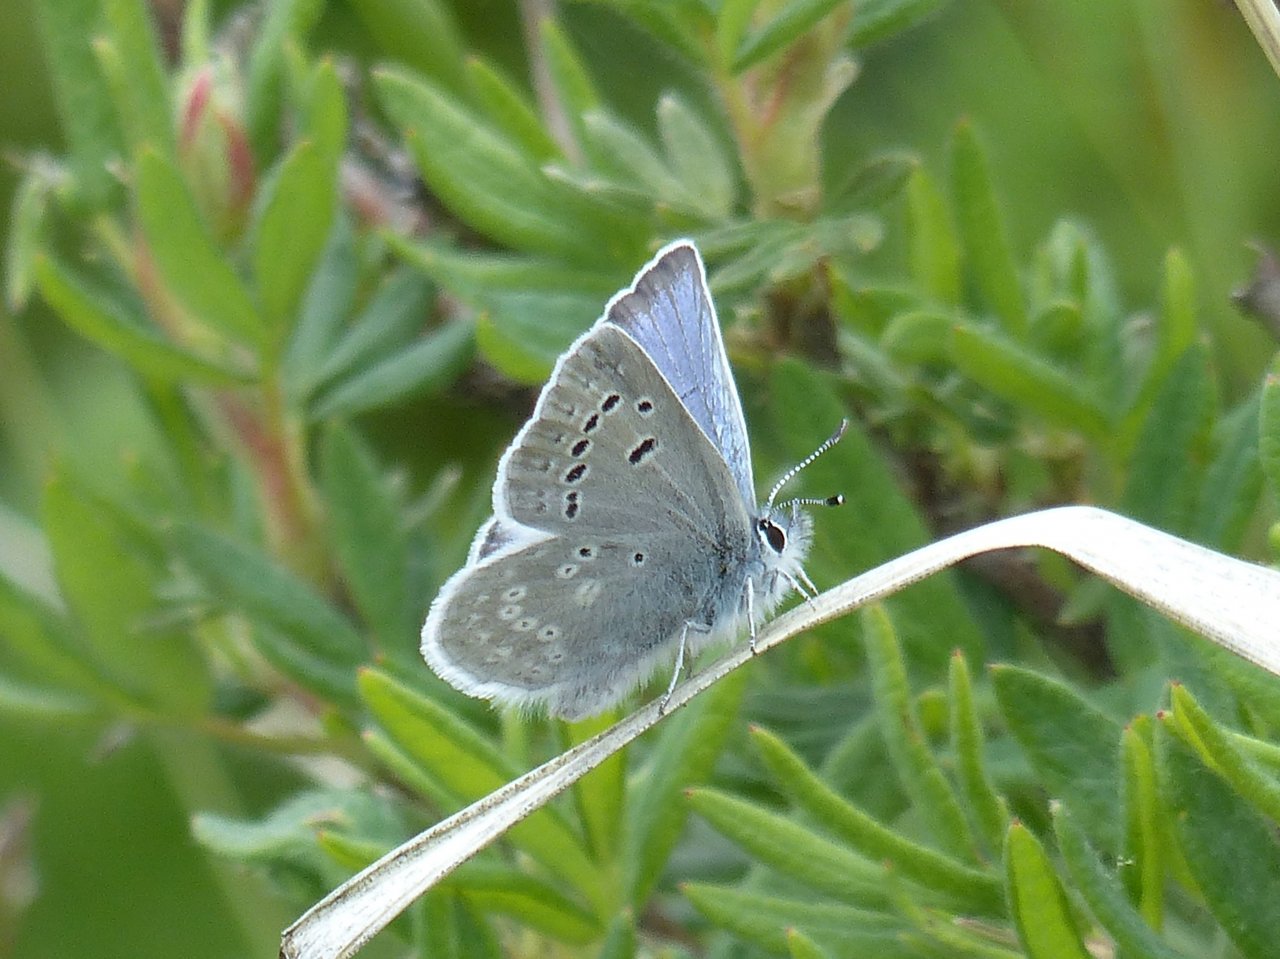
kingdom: Animalia
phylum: Arthropoda
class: Insecta
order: Lepidoptera
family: Lycaenidae
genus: Icaricia
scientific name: Icaricia icarioides
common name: Boisduval's Blue
